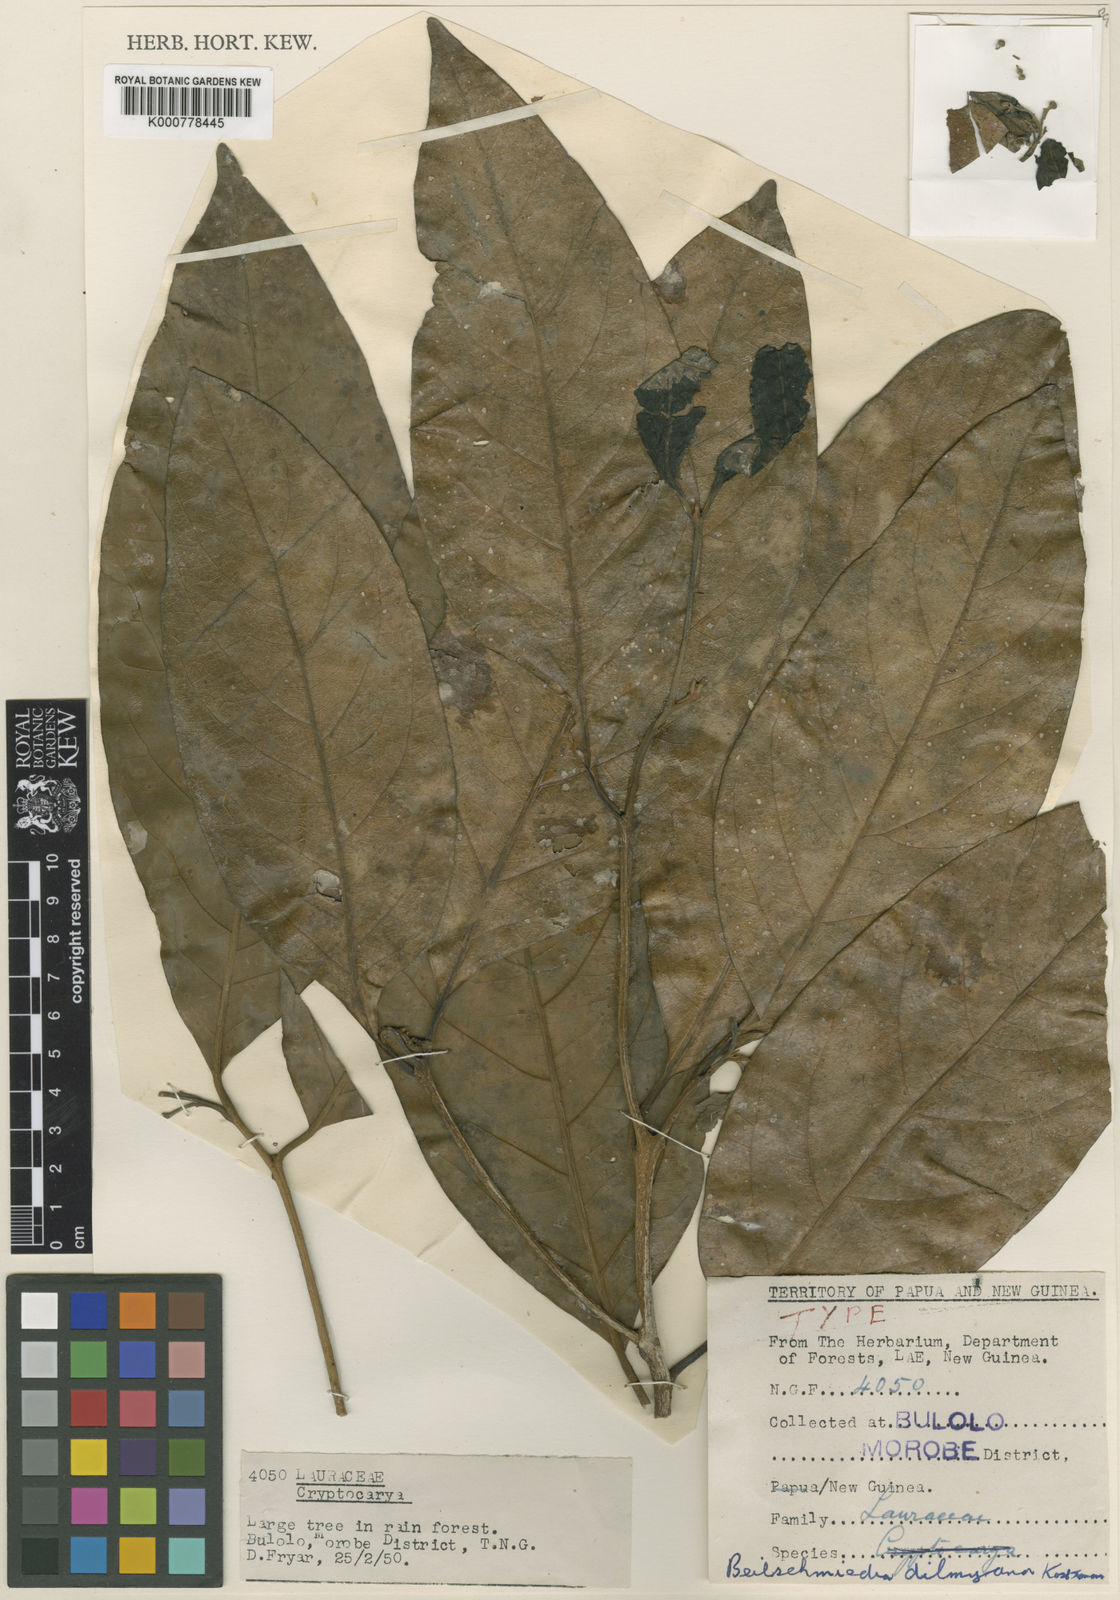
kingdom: Plantae
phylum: Tracheophyta
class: Magnoliopsida
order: Laurales
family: Lauraceae
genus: Beilschmiedia
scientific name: Beilschmiedia dilmyana
